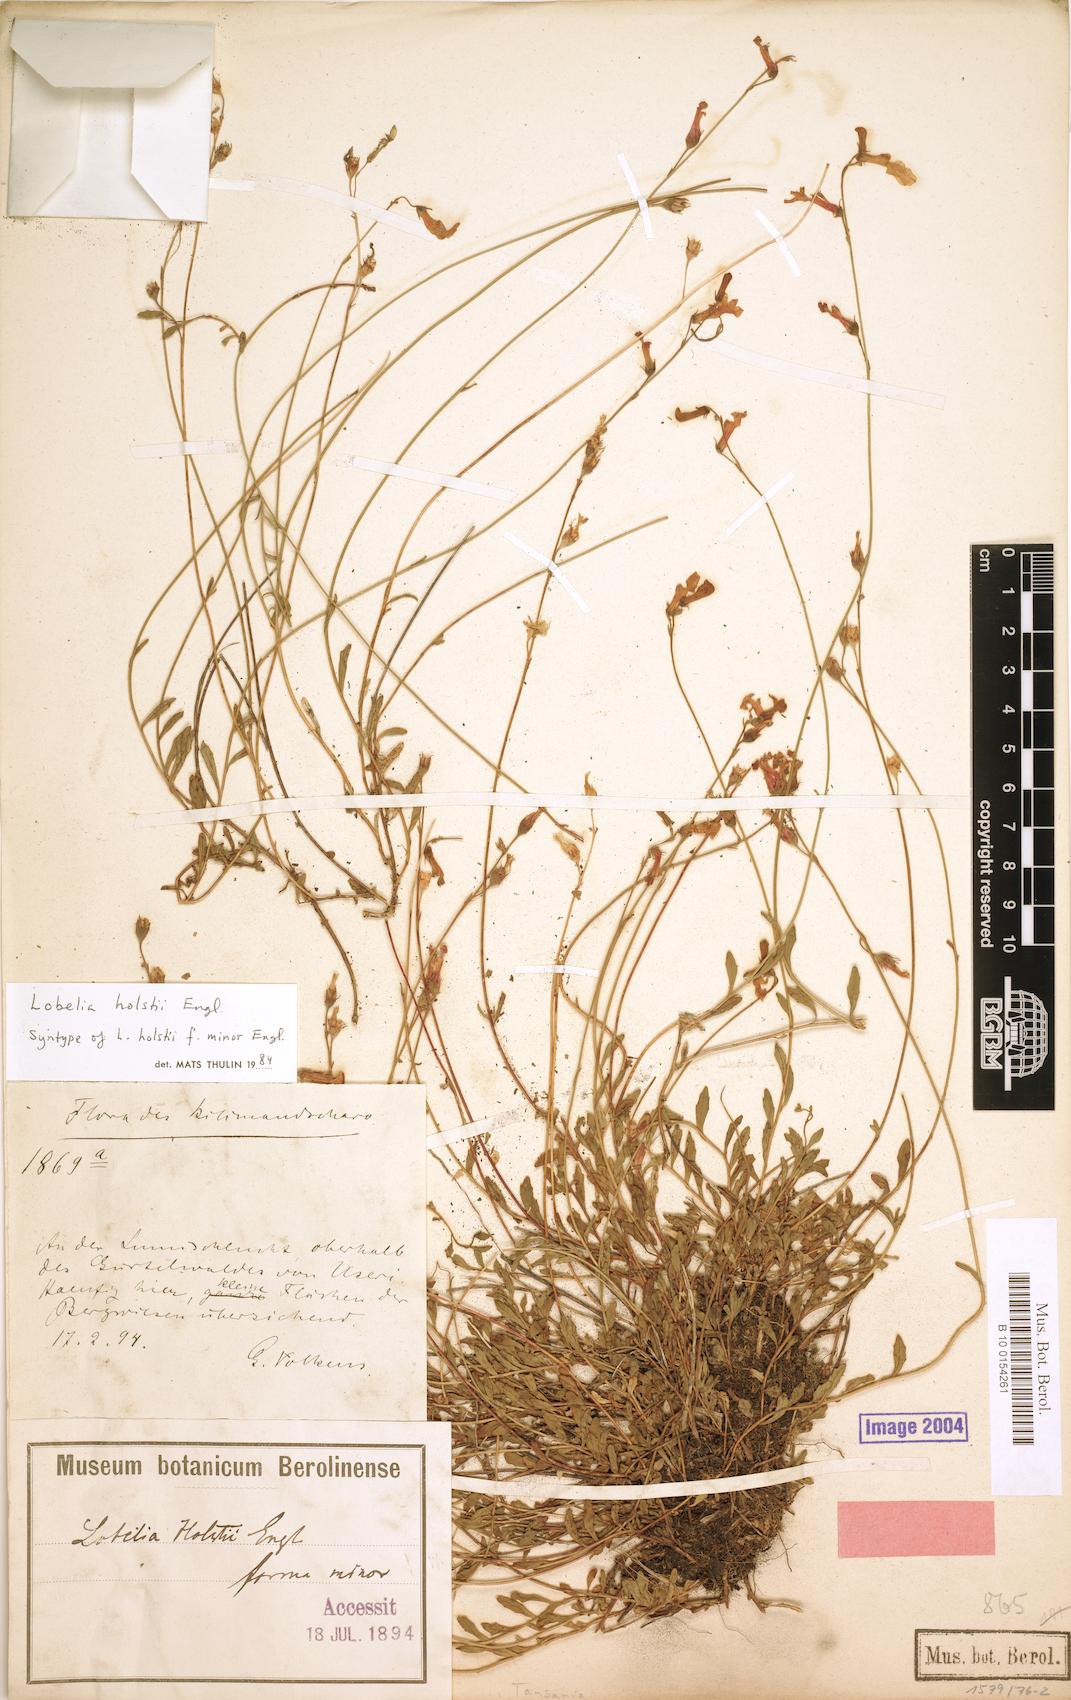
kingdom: Plantae
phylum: Tracheophyta
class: Magnoliopsida
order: Asterales
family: Campanulaceae
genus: Lobelia
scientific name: Lobelia holstii
